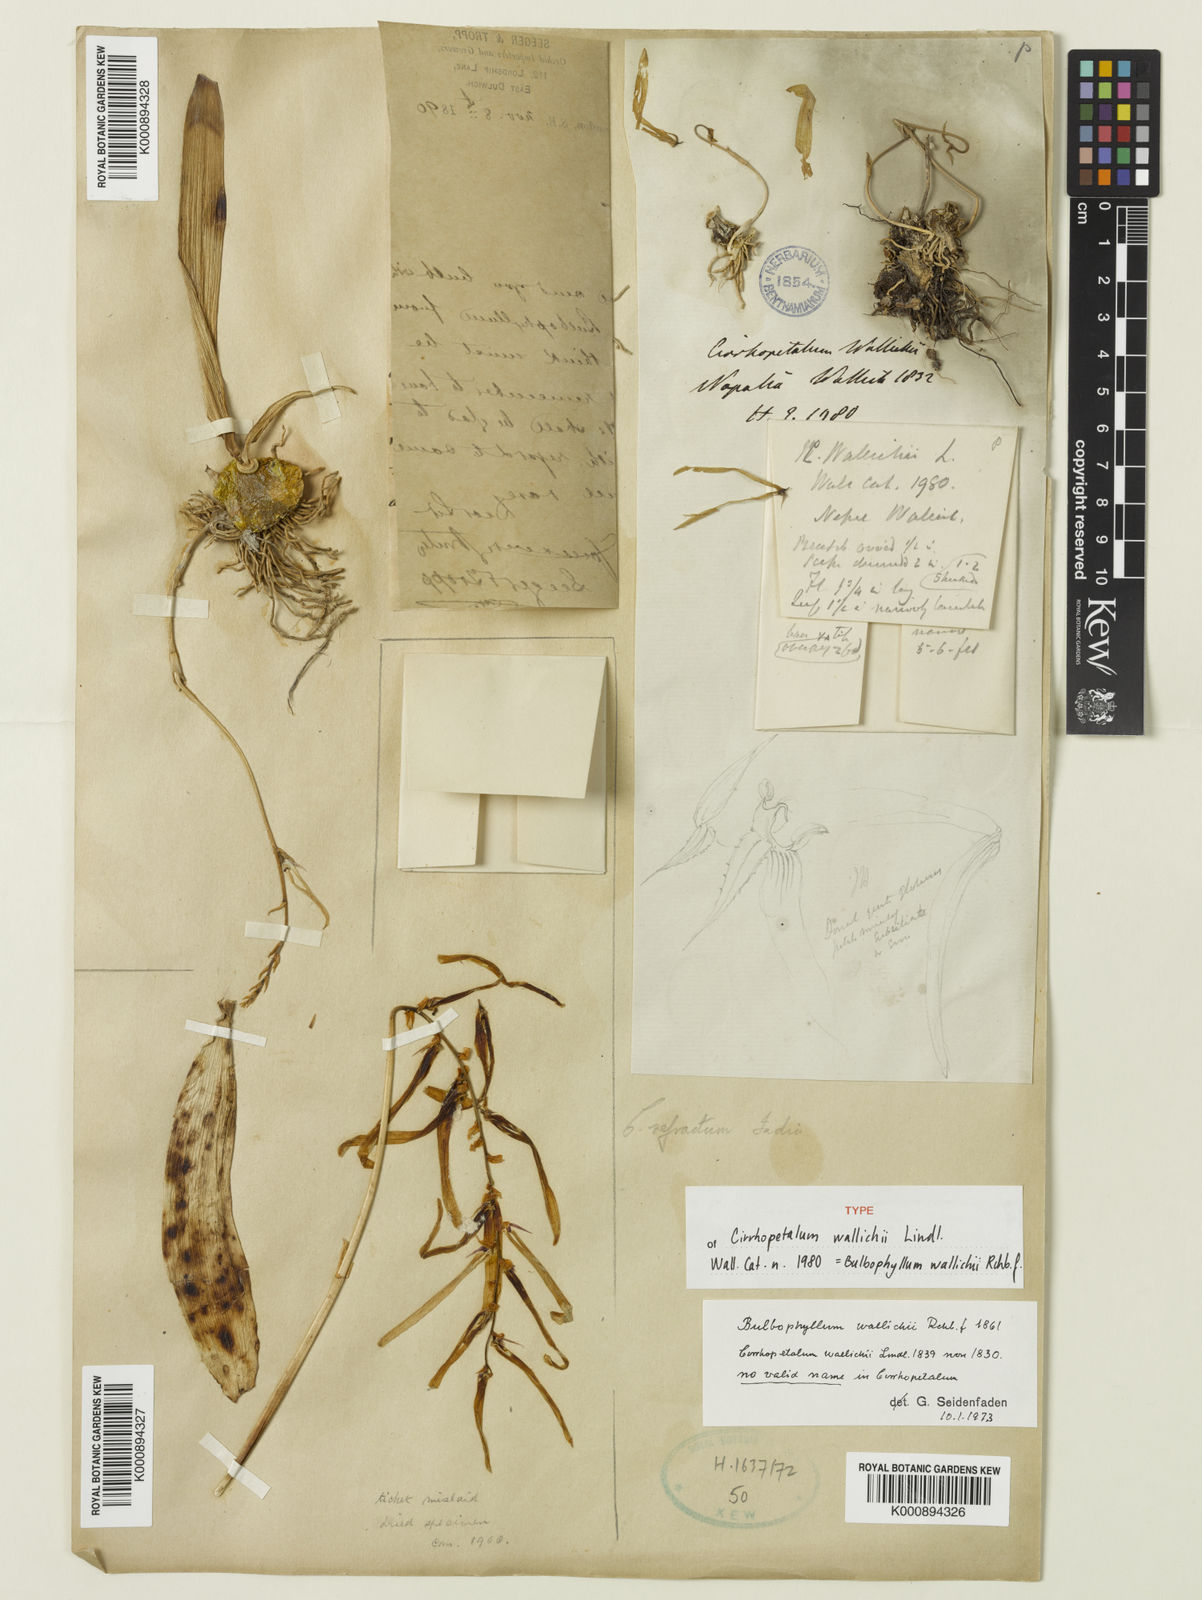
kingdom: Plantae
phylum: Tracheophyta
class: Liliopsida
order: Asparagales
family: Orchidaceae
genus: Bulbophyllum
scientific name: Bulbophyllum
